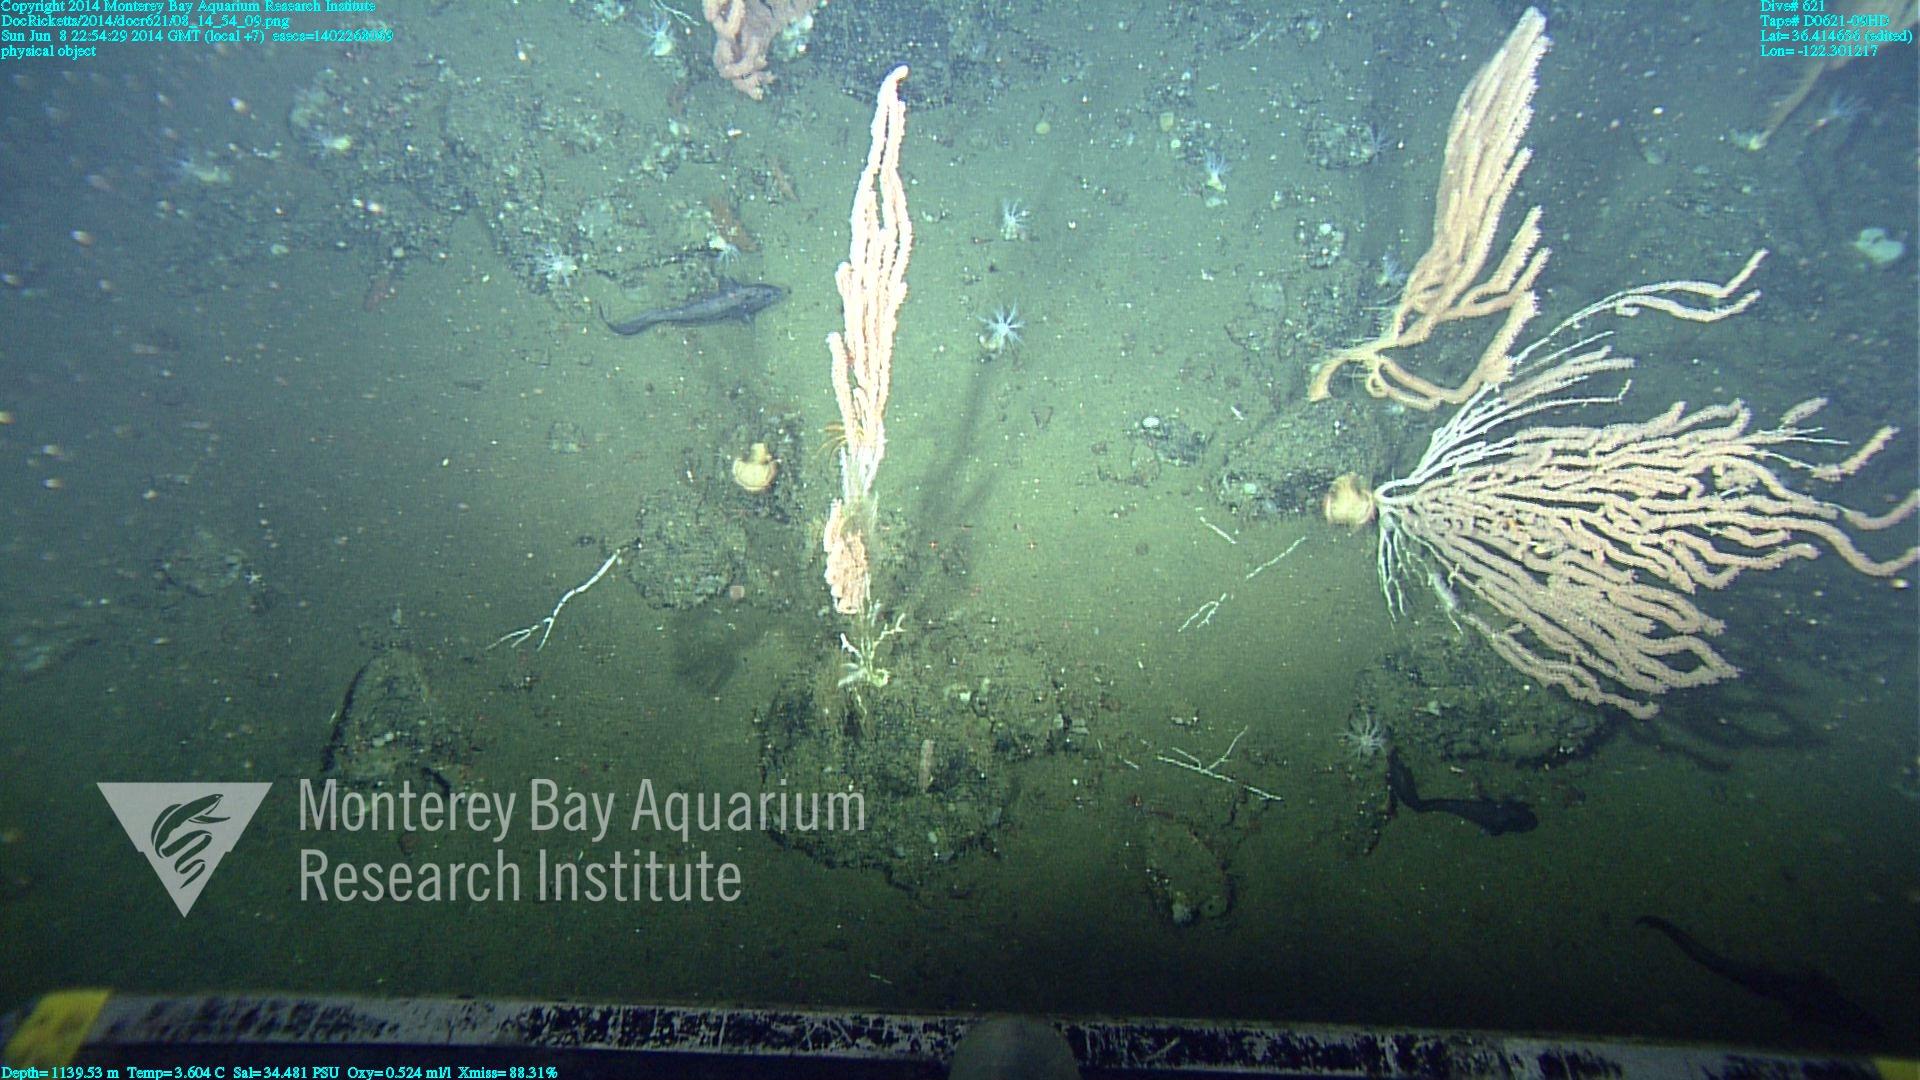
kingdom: Animalia
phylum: Cnidaria
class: Anthozoa
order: Scleralcyonacea
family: Keratoisididae
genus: Keratoisis
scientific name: Keratoisis
